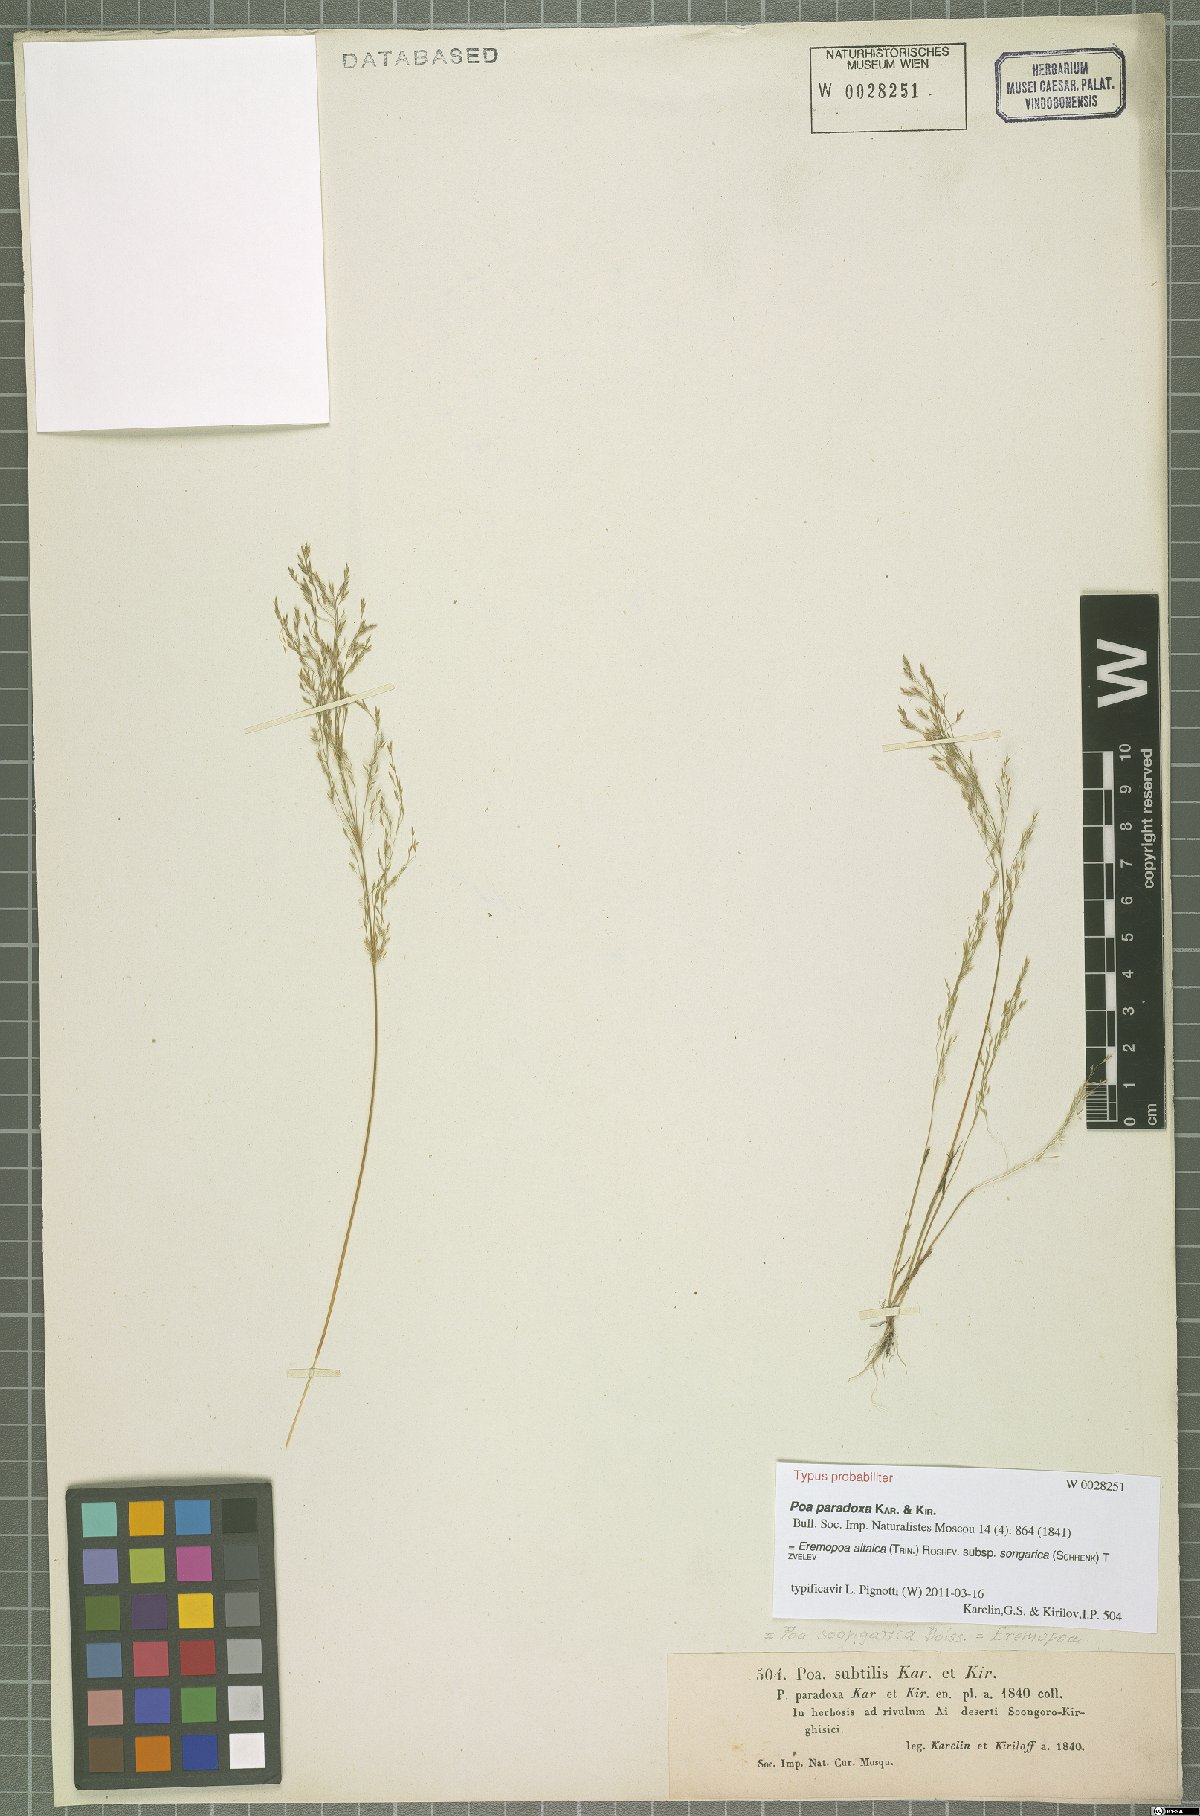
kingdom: Plantae
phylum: Tracheophyta
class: Liliopsida
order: Poales
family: Poaceae
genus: Poa
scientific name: Poa diaphora
